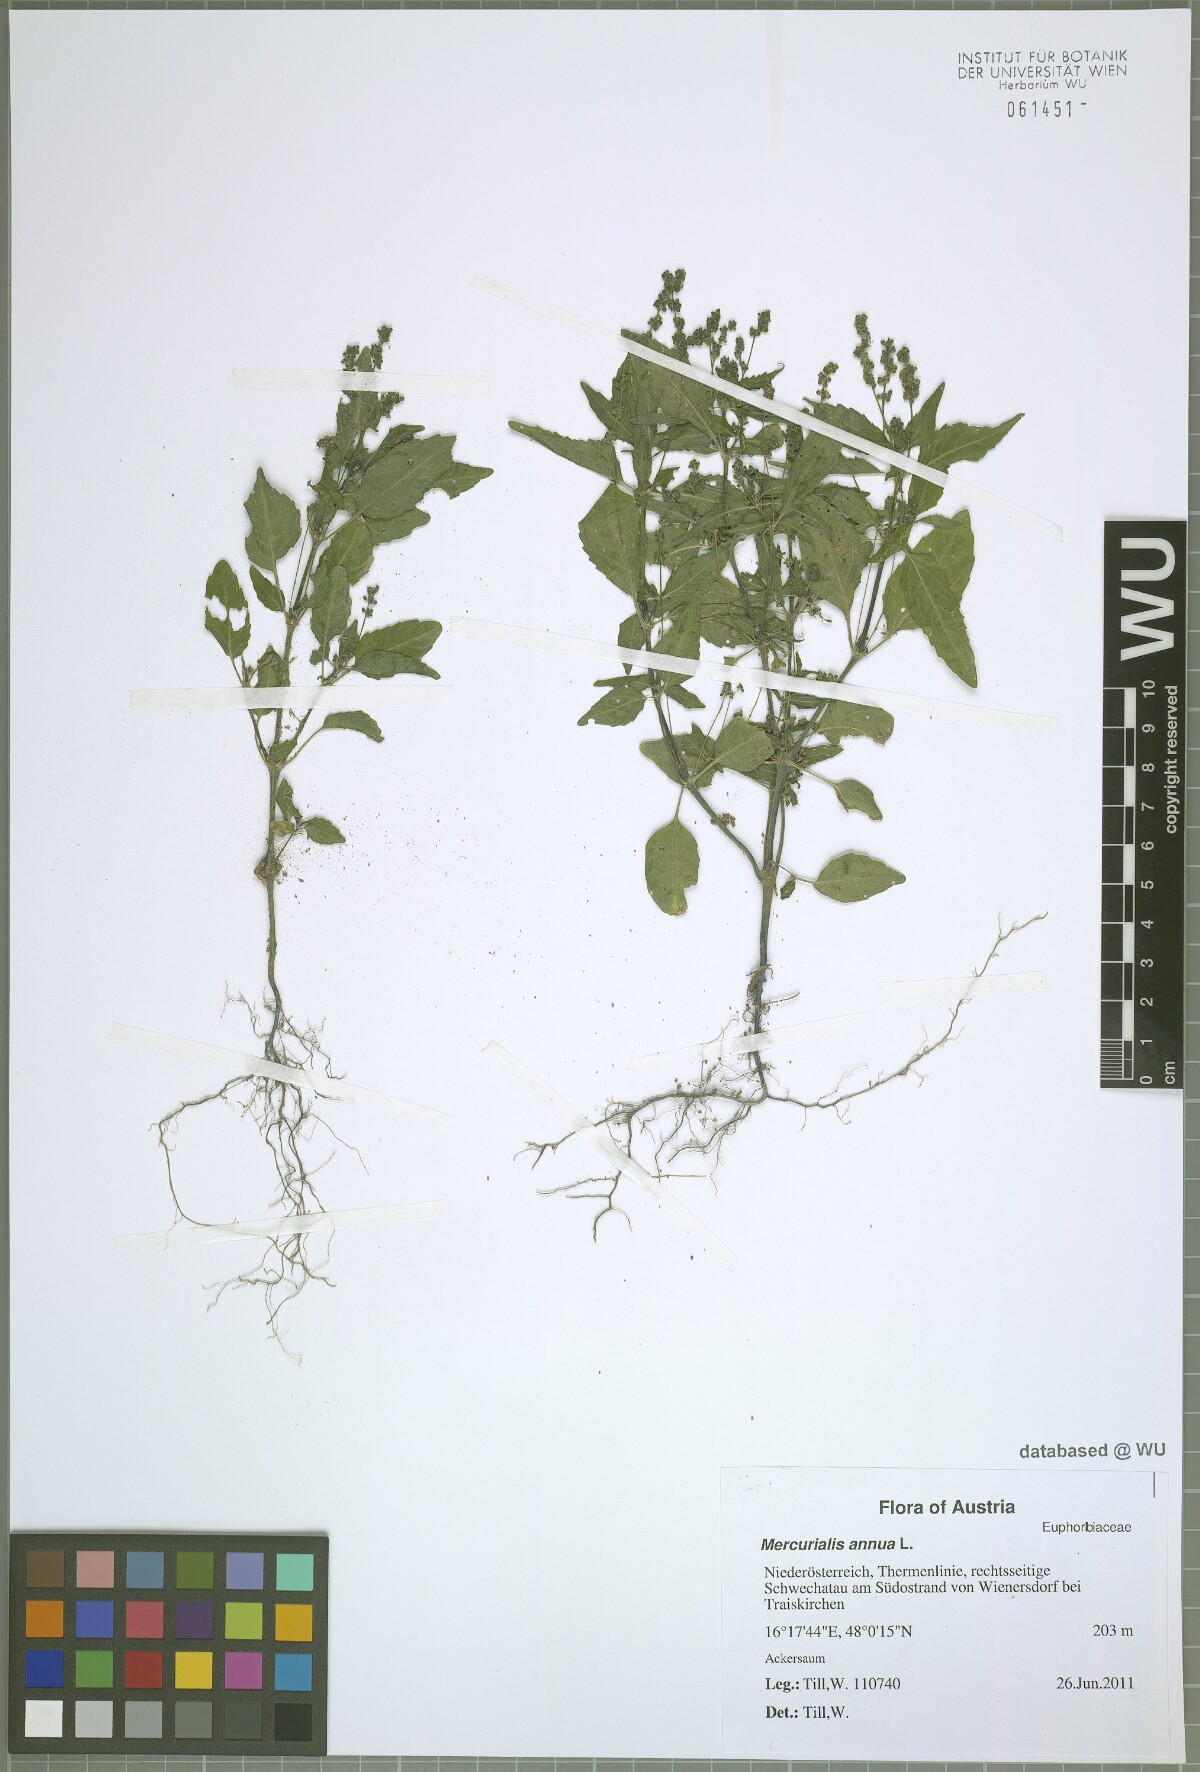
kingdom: Plantae
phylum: Tracheophyta
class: Magnoliopsida
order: Malpighiales
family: Euphorbiaceae
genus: Mercurialis
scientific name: Mercurialis annua
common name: Annual mercury
